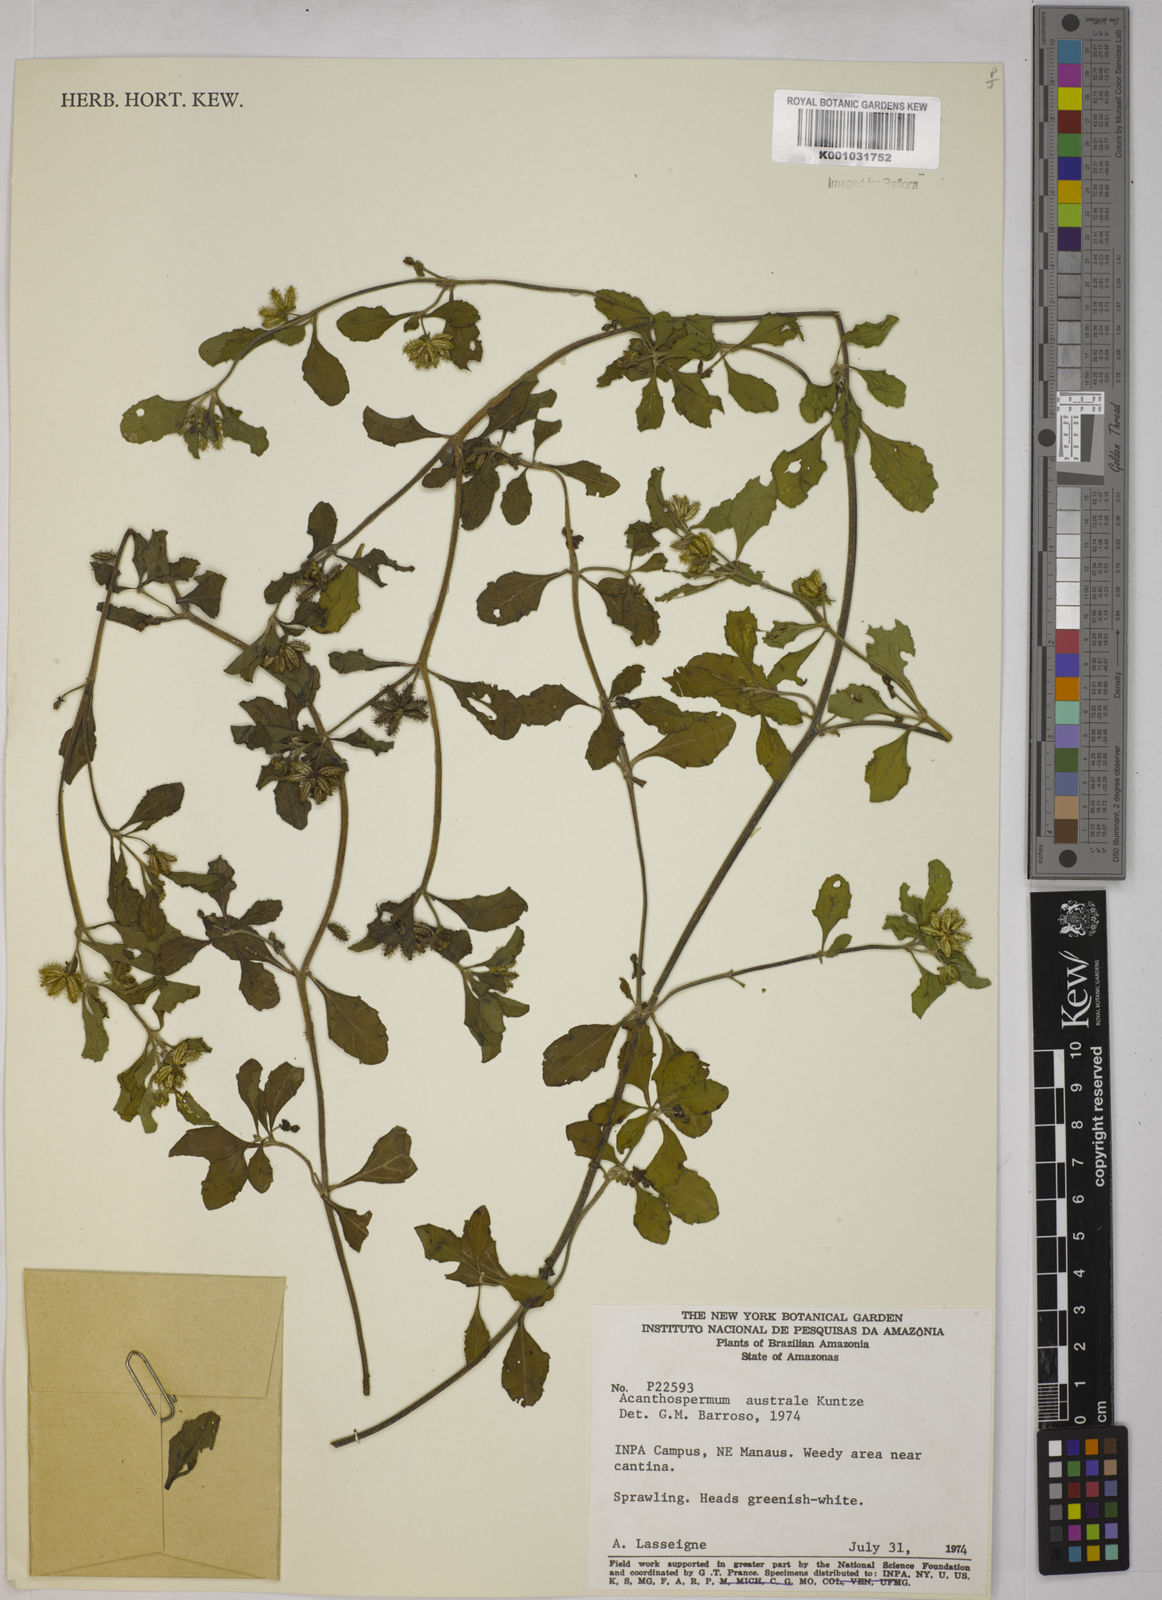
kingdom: Plantae
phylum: Tracheophyta
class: Magnoliopsida
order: Asterales
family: Asteraceae
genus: Acanthospermum
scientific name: Acanthospermum australe
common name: Paraguayan starbur
